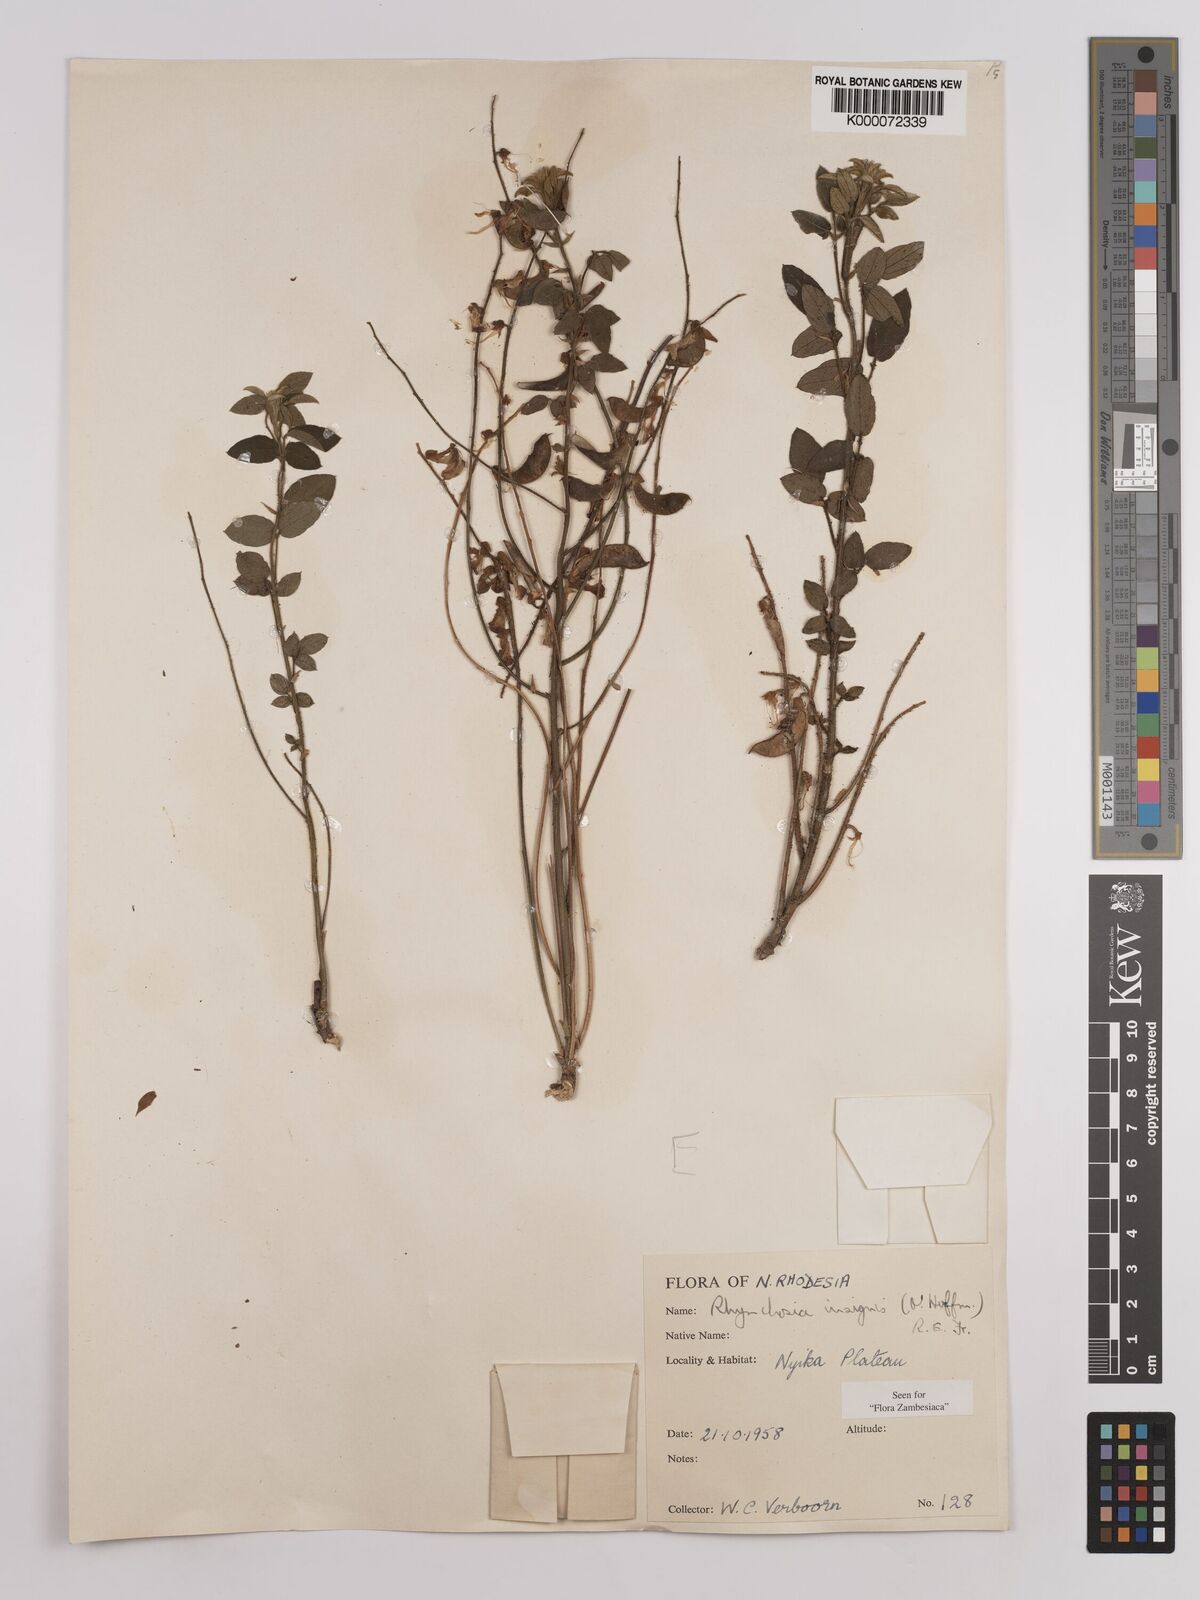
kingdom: Plantae
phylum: Tracheophyta
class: Magnoliopsida
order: Fabales
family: Fabaceae
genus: Rhynchosia
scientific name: Rhynchosia insignis
